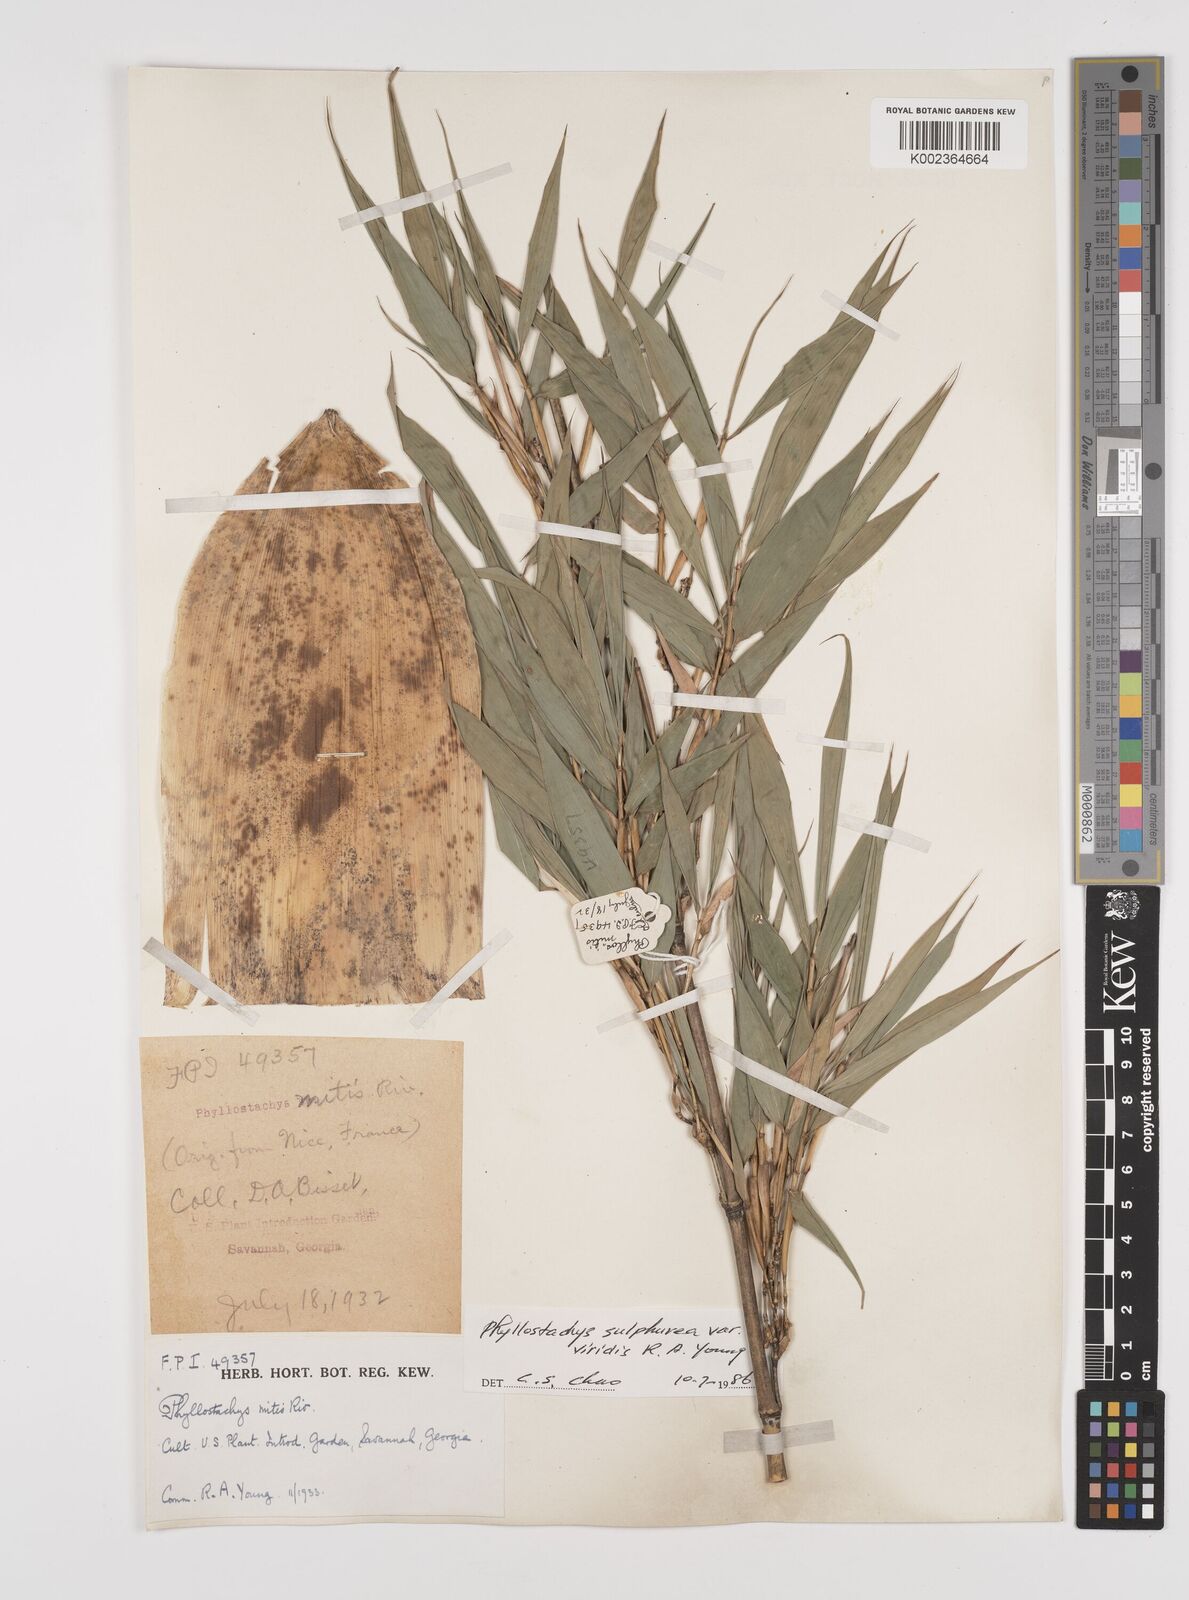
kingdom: Plantae
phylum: Tracheophyta
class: Liliopsida
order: Poales
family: Poaceae
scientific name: Poaceae
